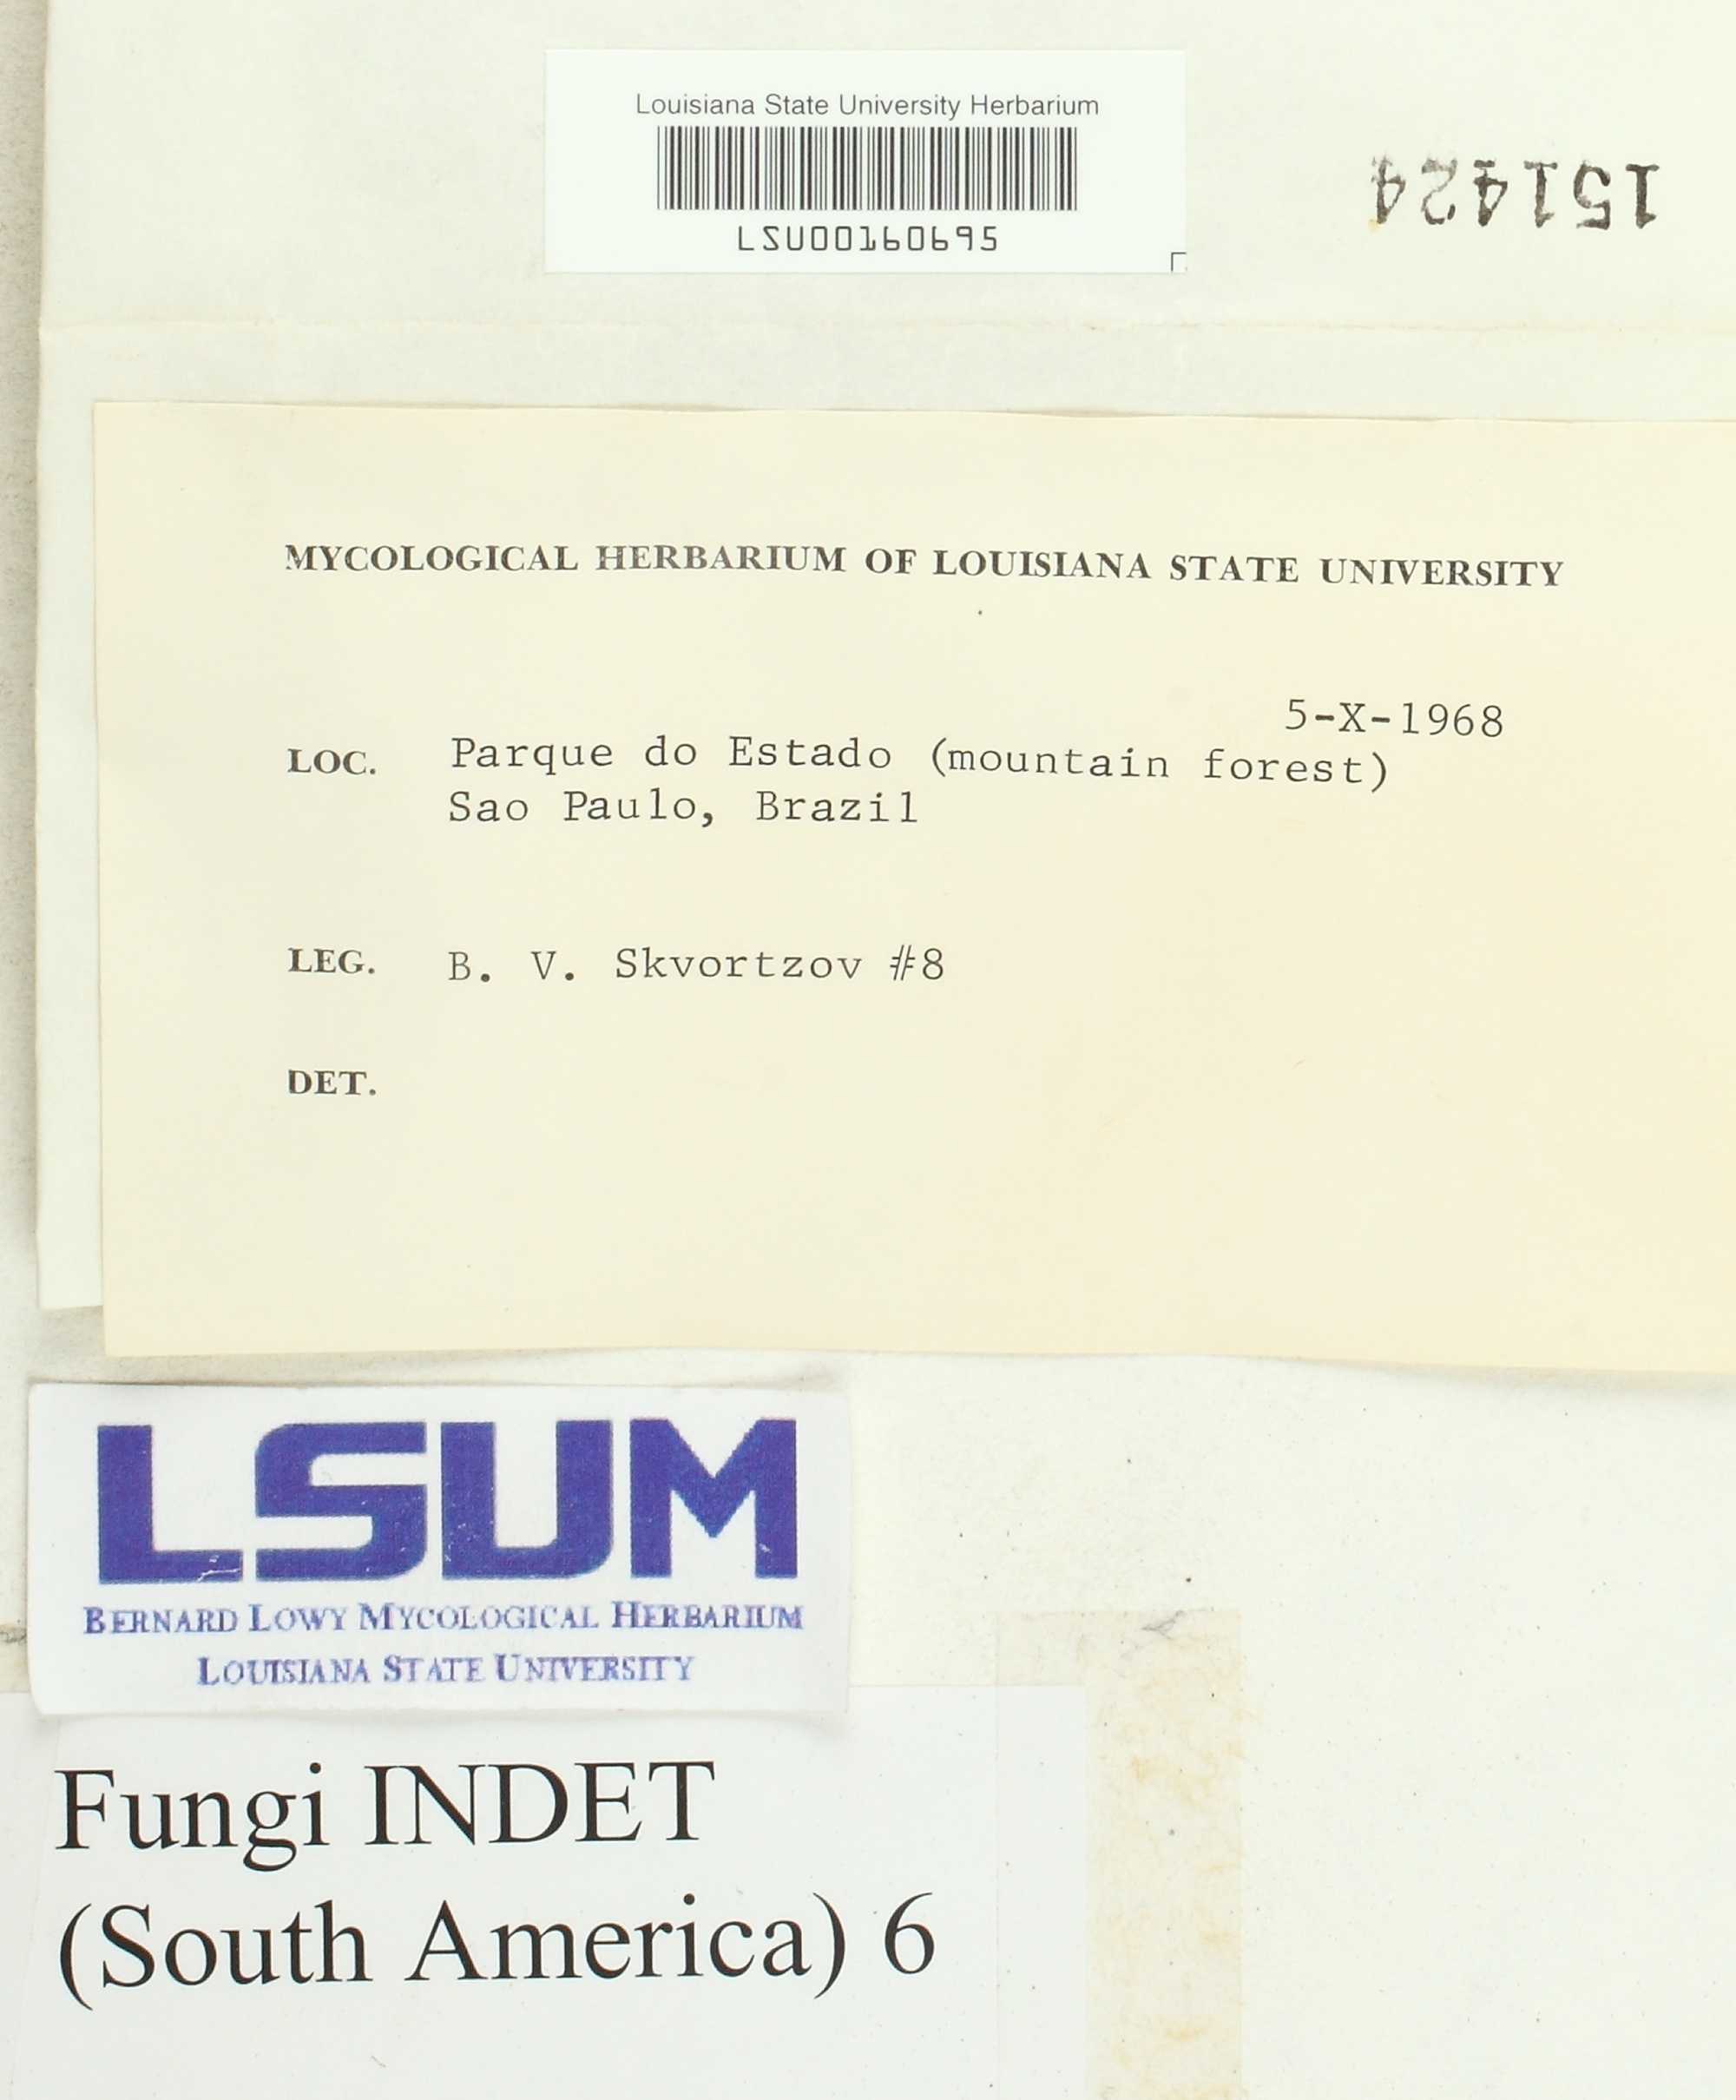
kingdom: Fungi
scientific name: Fungi
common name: Fungi
